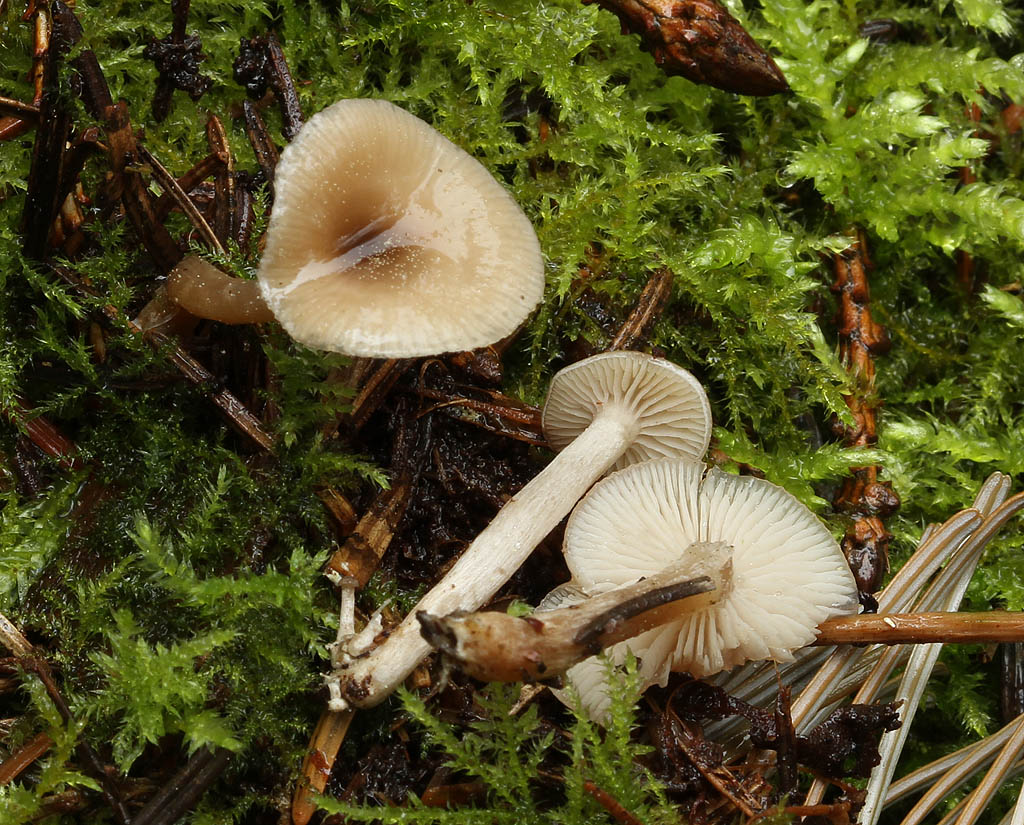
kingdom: Fungi
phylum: Basidiomycota
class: Agaricomycetes
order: Agaricales
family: Tricholomataceae
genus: Clitocybe
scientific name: Clitocybe fragrans
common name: vellugtende tragthat
